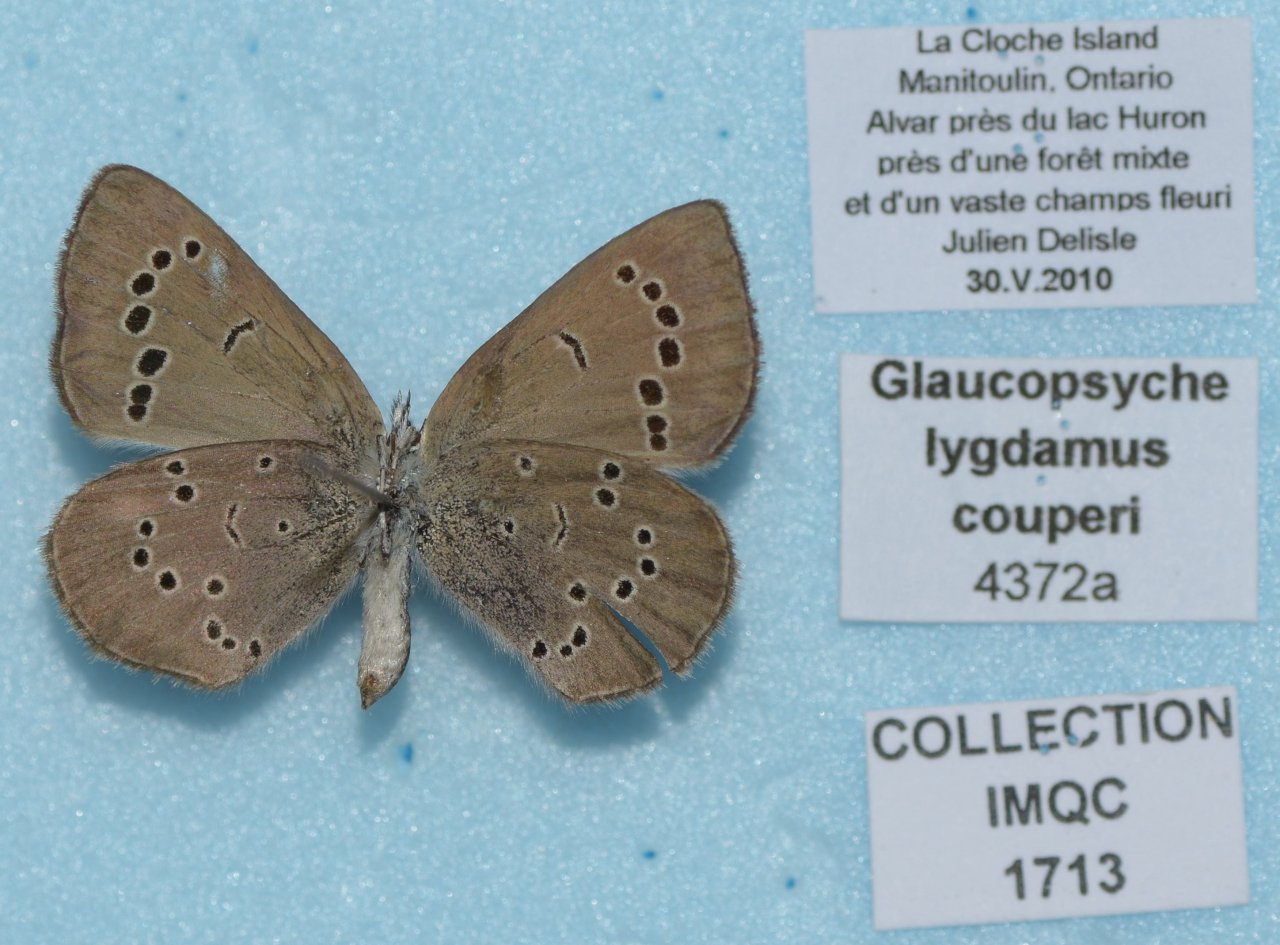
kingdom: Animalia
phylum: Arthropoda
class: Insecta
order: Lepidoptera
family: Lycaenidae
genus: Glaucopsyche
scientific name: Glaucopsyche lygdamus
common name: Silvery Blue
